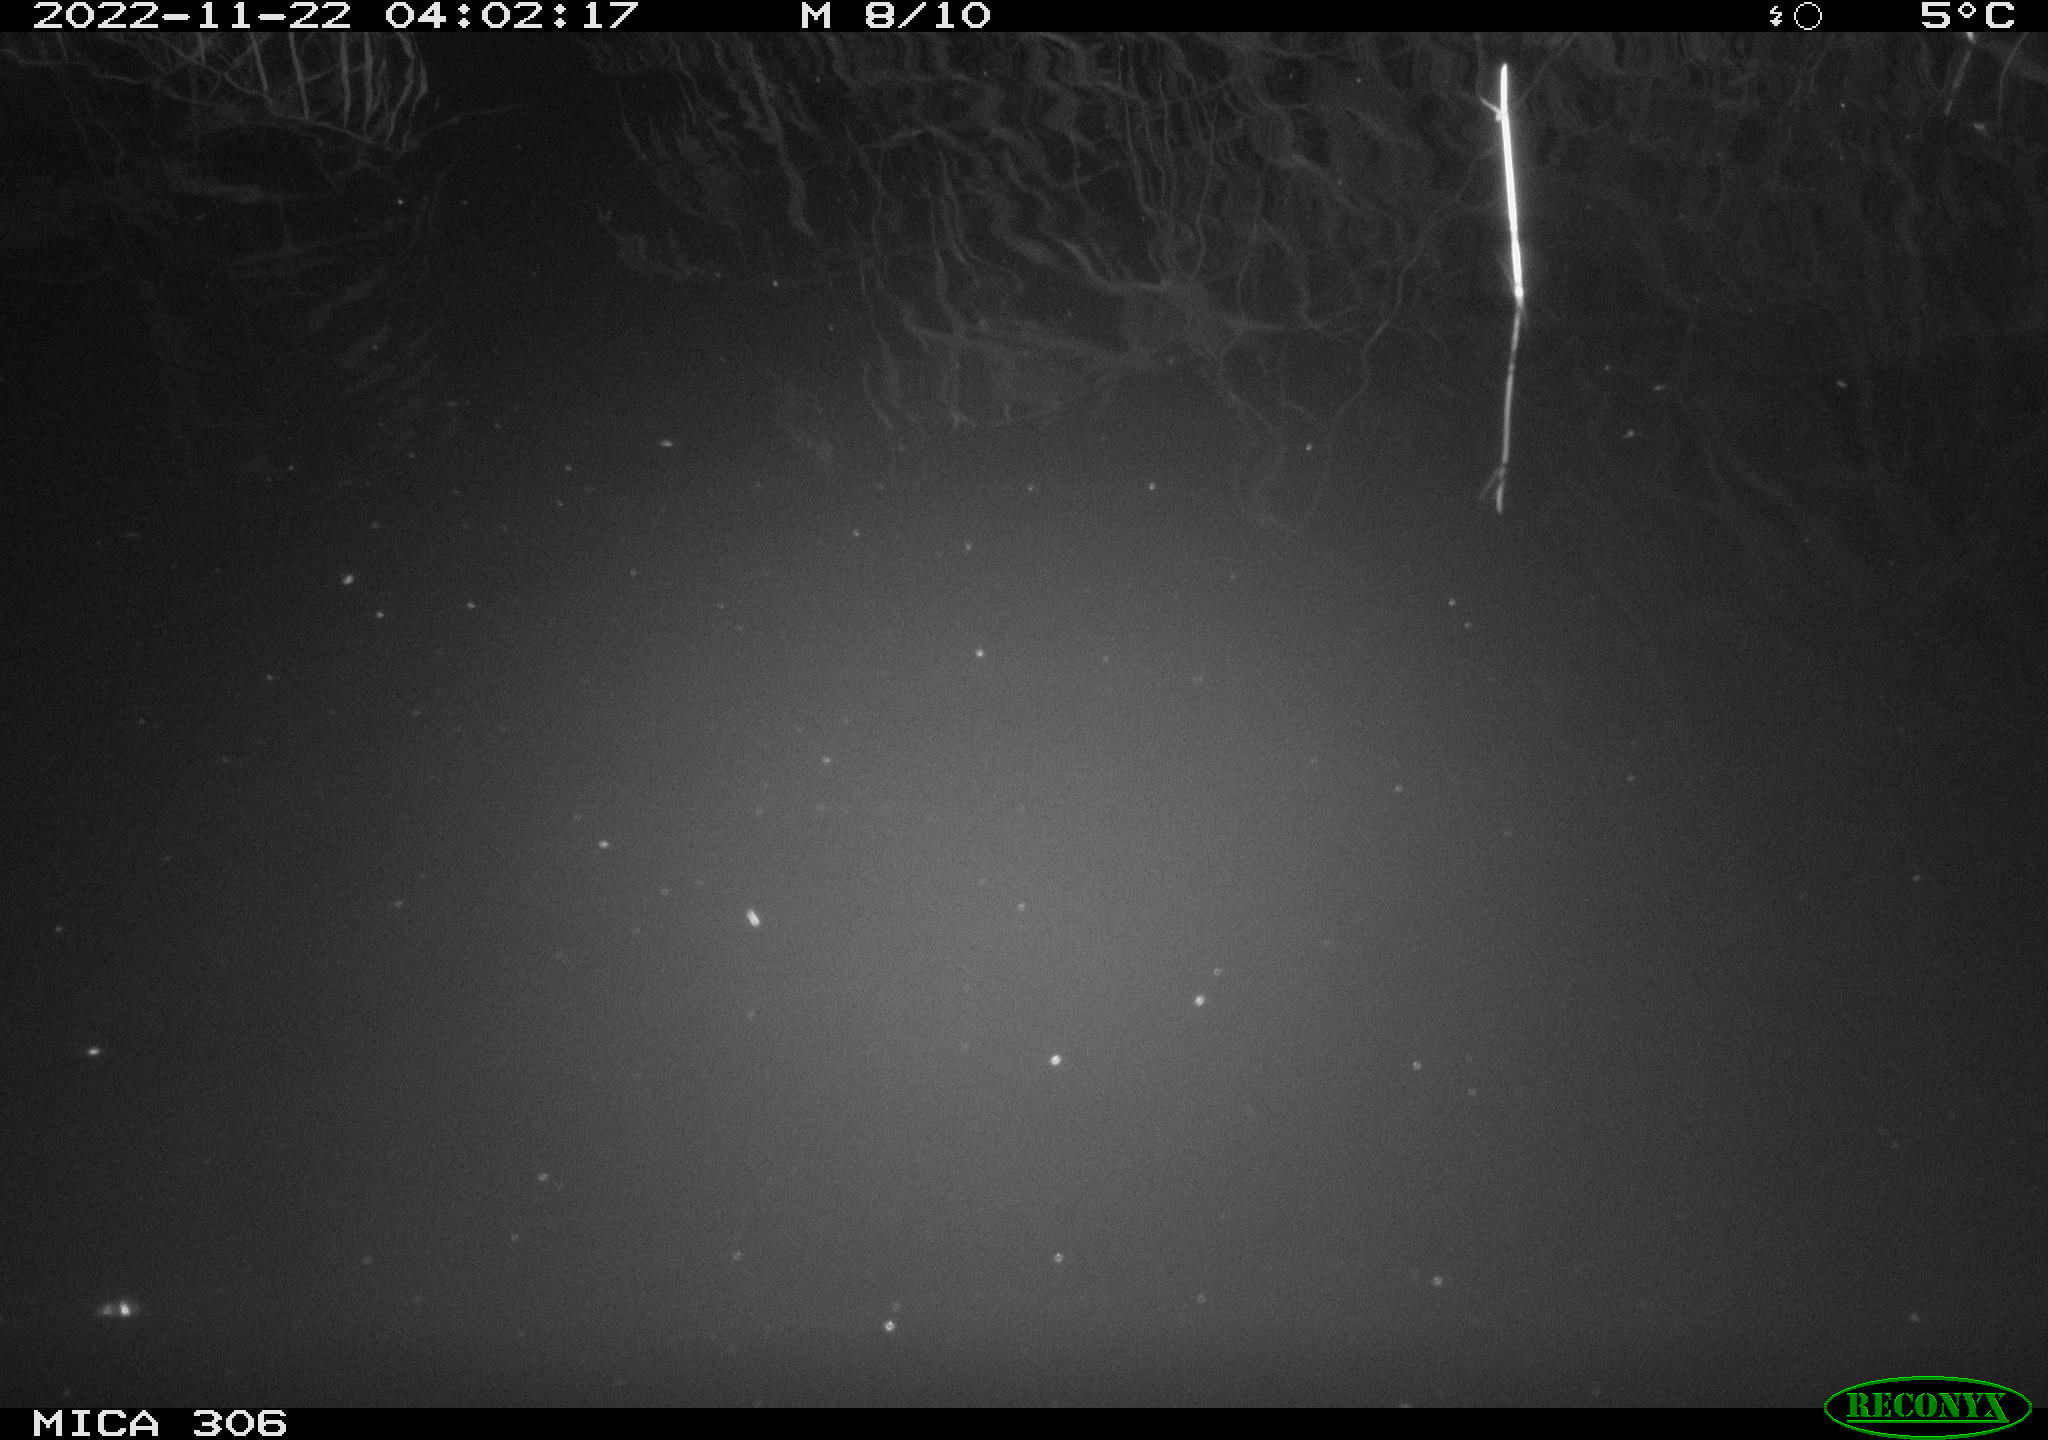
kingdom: Animalia
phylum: Chordata
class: Mammalia
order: Rodentia
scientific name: Rodentia
